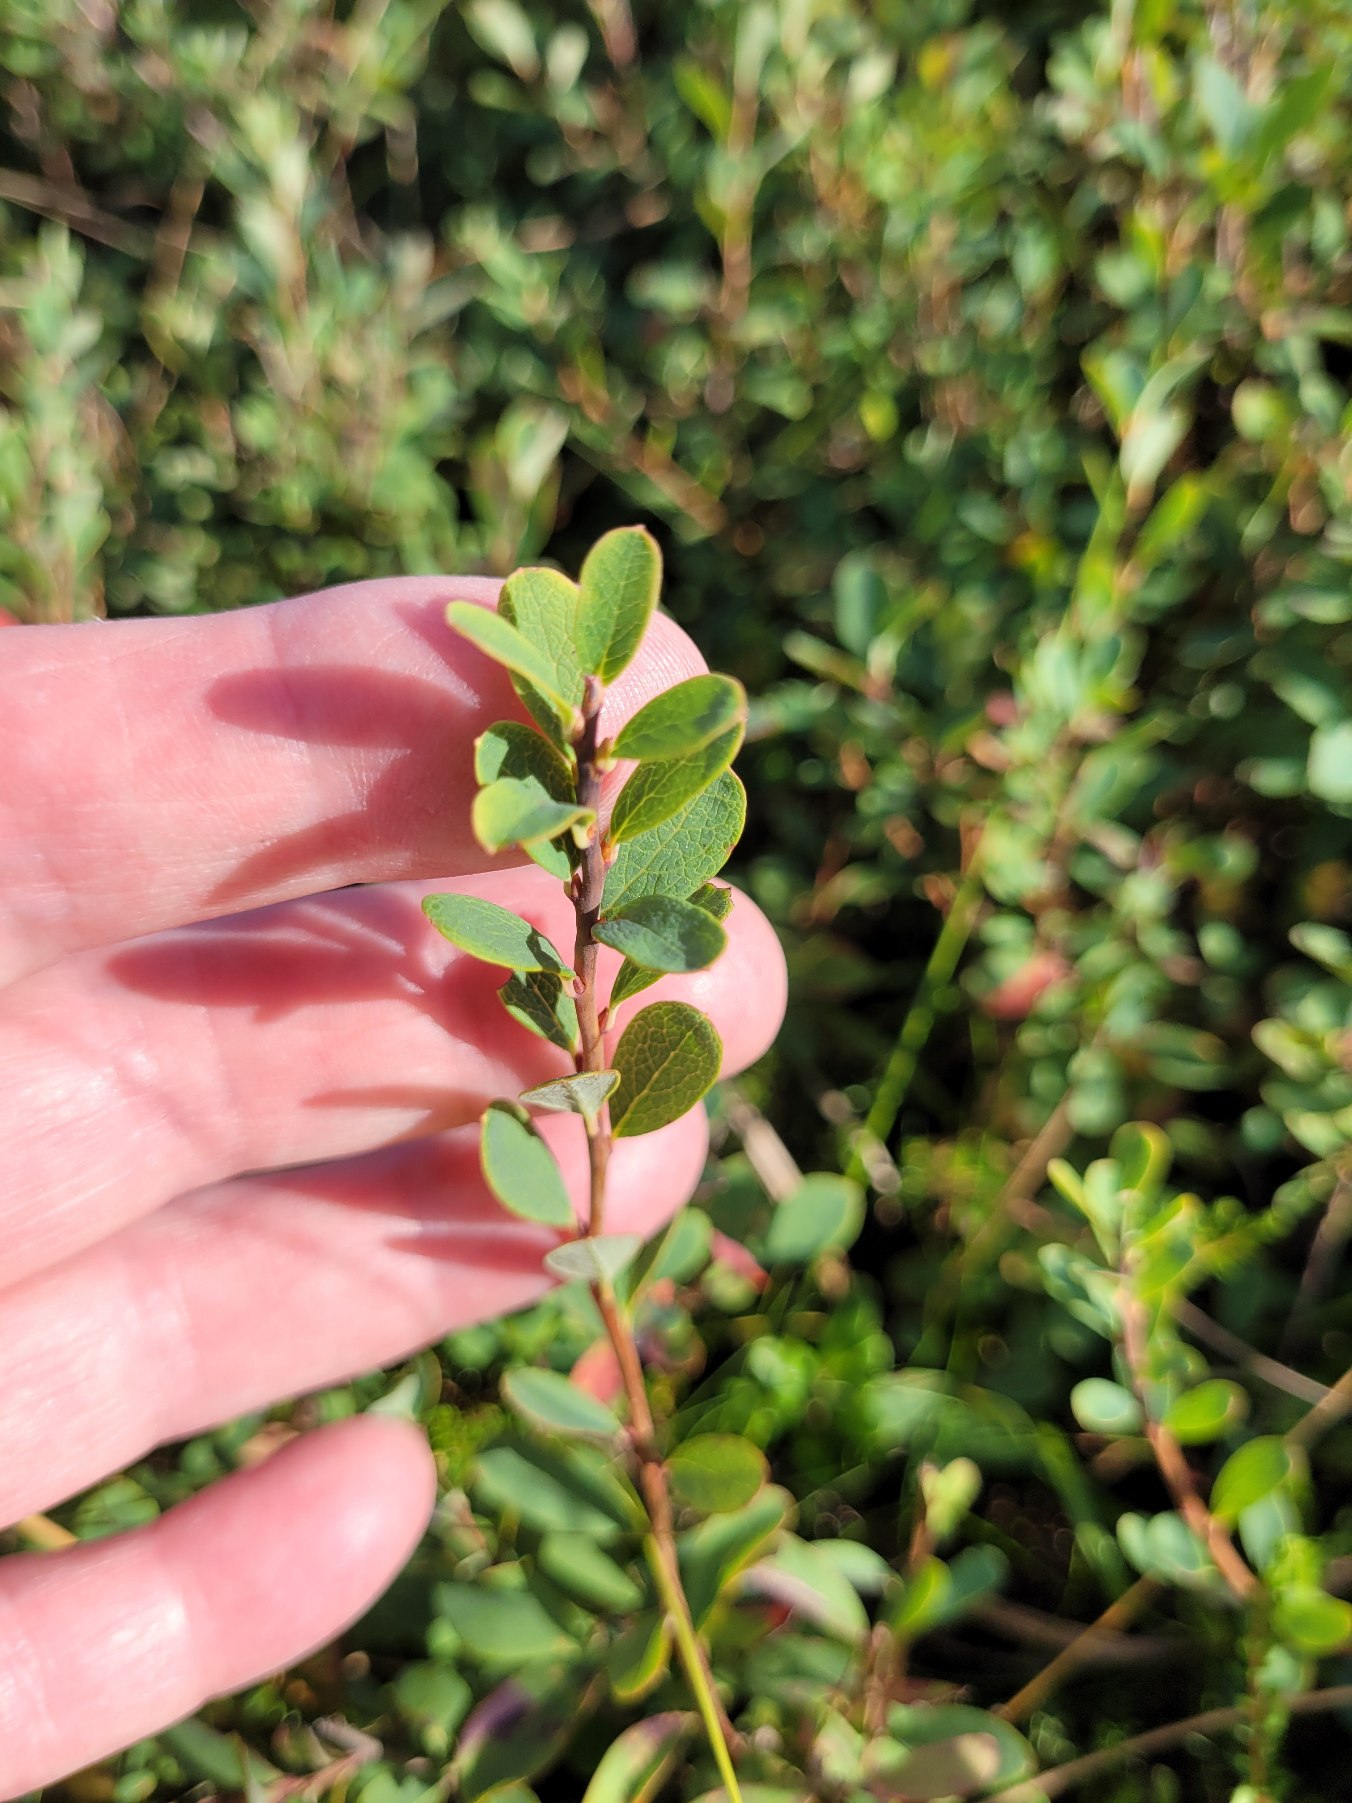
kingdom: Plantae
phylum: Tracheophyta
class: Magnoliopsida
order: Ericales
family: Ericaceae
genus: Vaccinium
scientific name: Vaccinium uliginosum
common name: Mose-bølle
